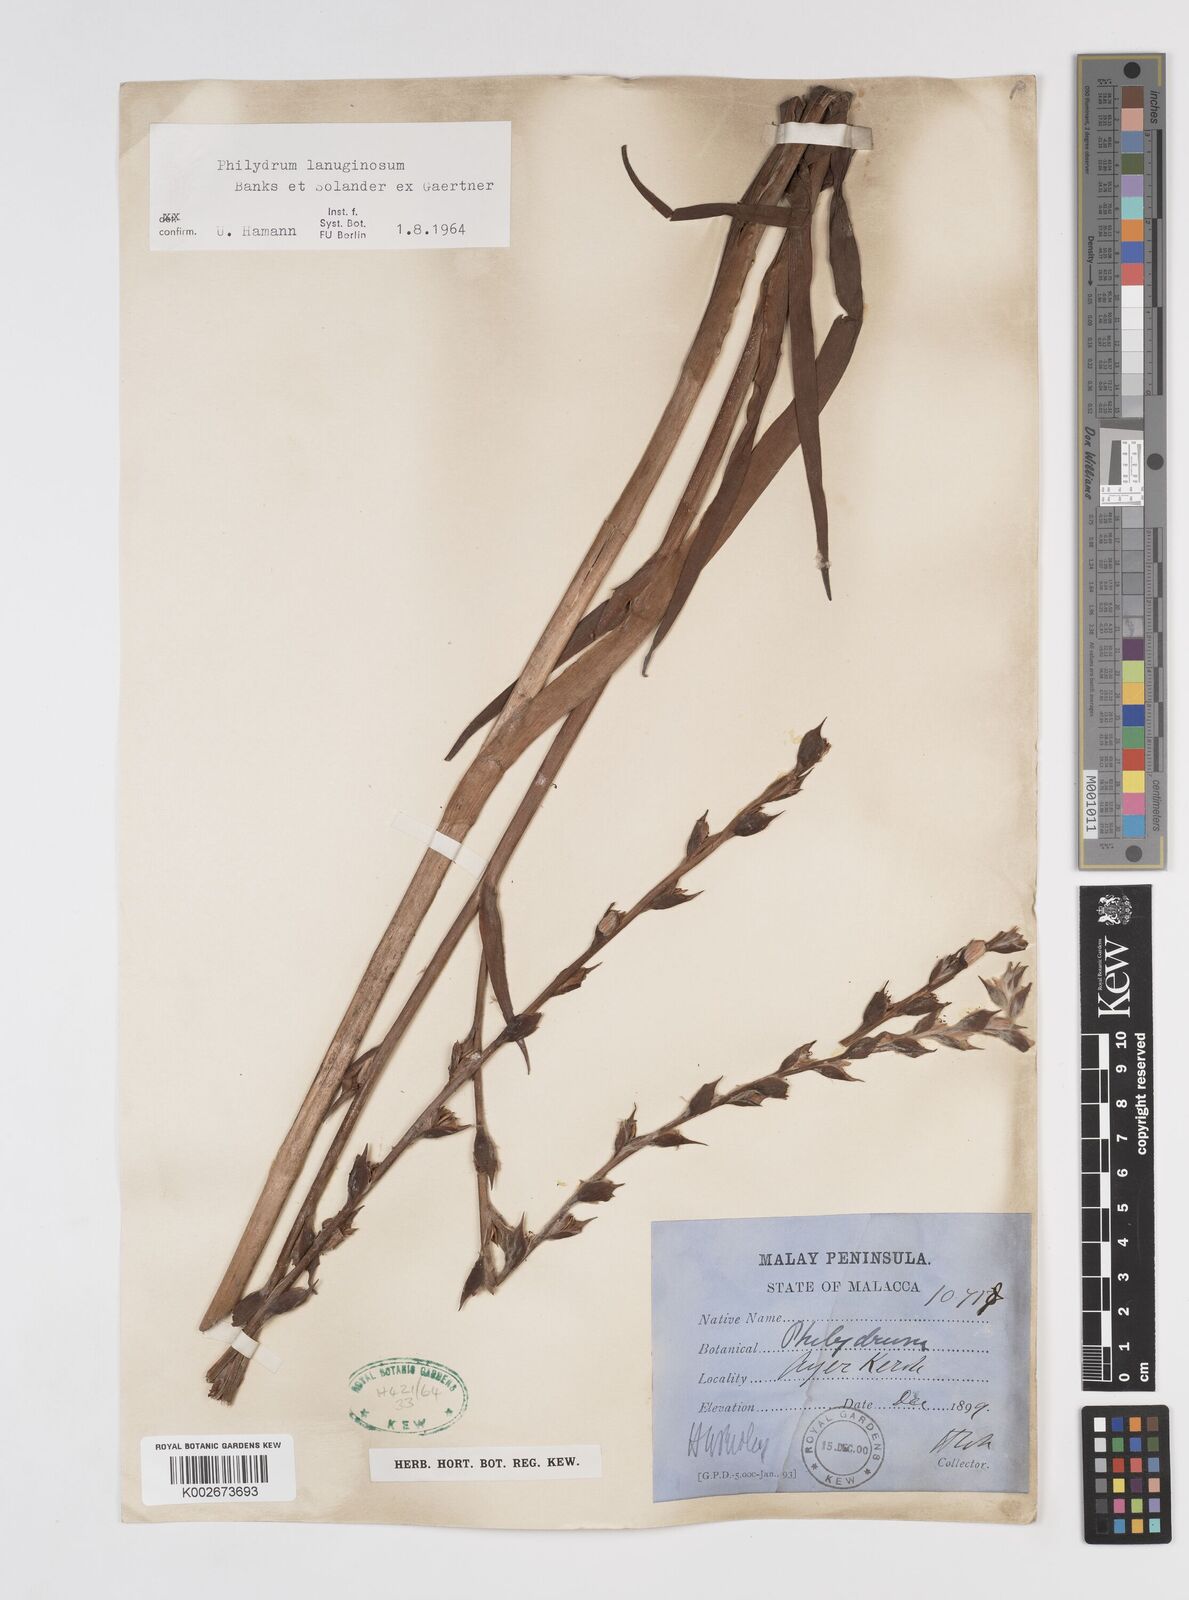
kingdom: Plantae
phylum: Tracheophyta
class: Liliopsida
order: Commelinales
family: Philydraceae
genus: Philydrum
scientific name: Philydrum lanuginosum
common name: Woolly frog's mouth
